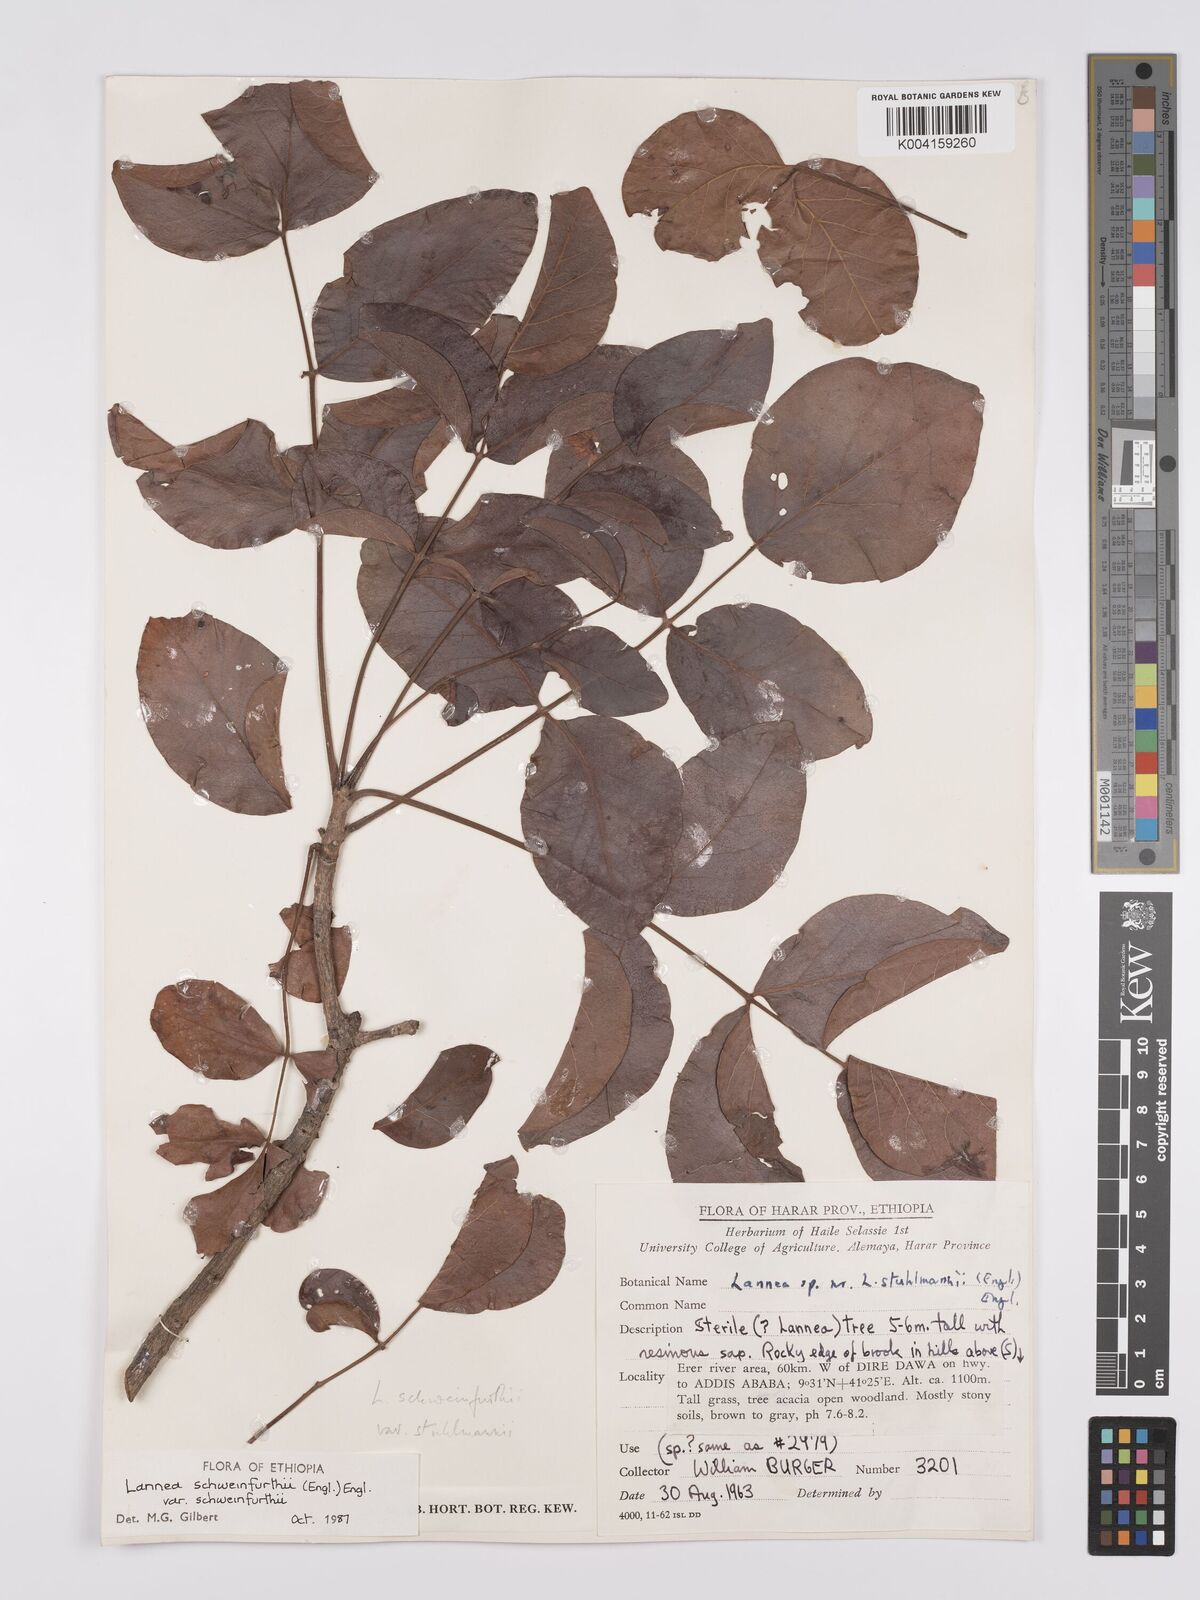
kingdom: Plantae
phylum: Tracheophyta
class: Magnoliopsida
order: Sapindales
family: Anacardiaceae
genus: Lannea
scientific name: Lannea schweinfurthii
